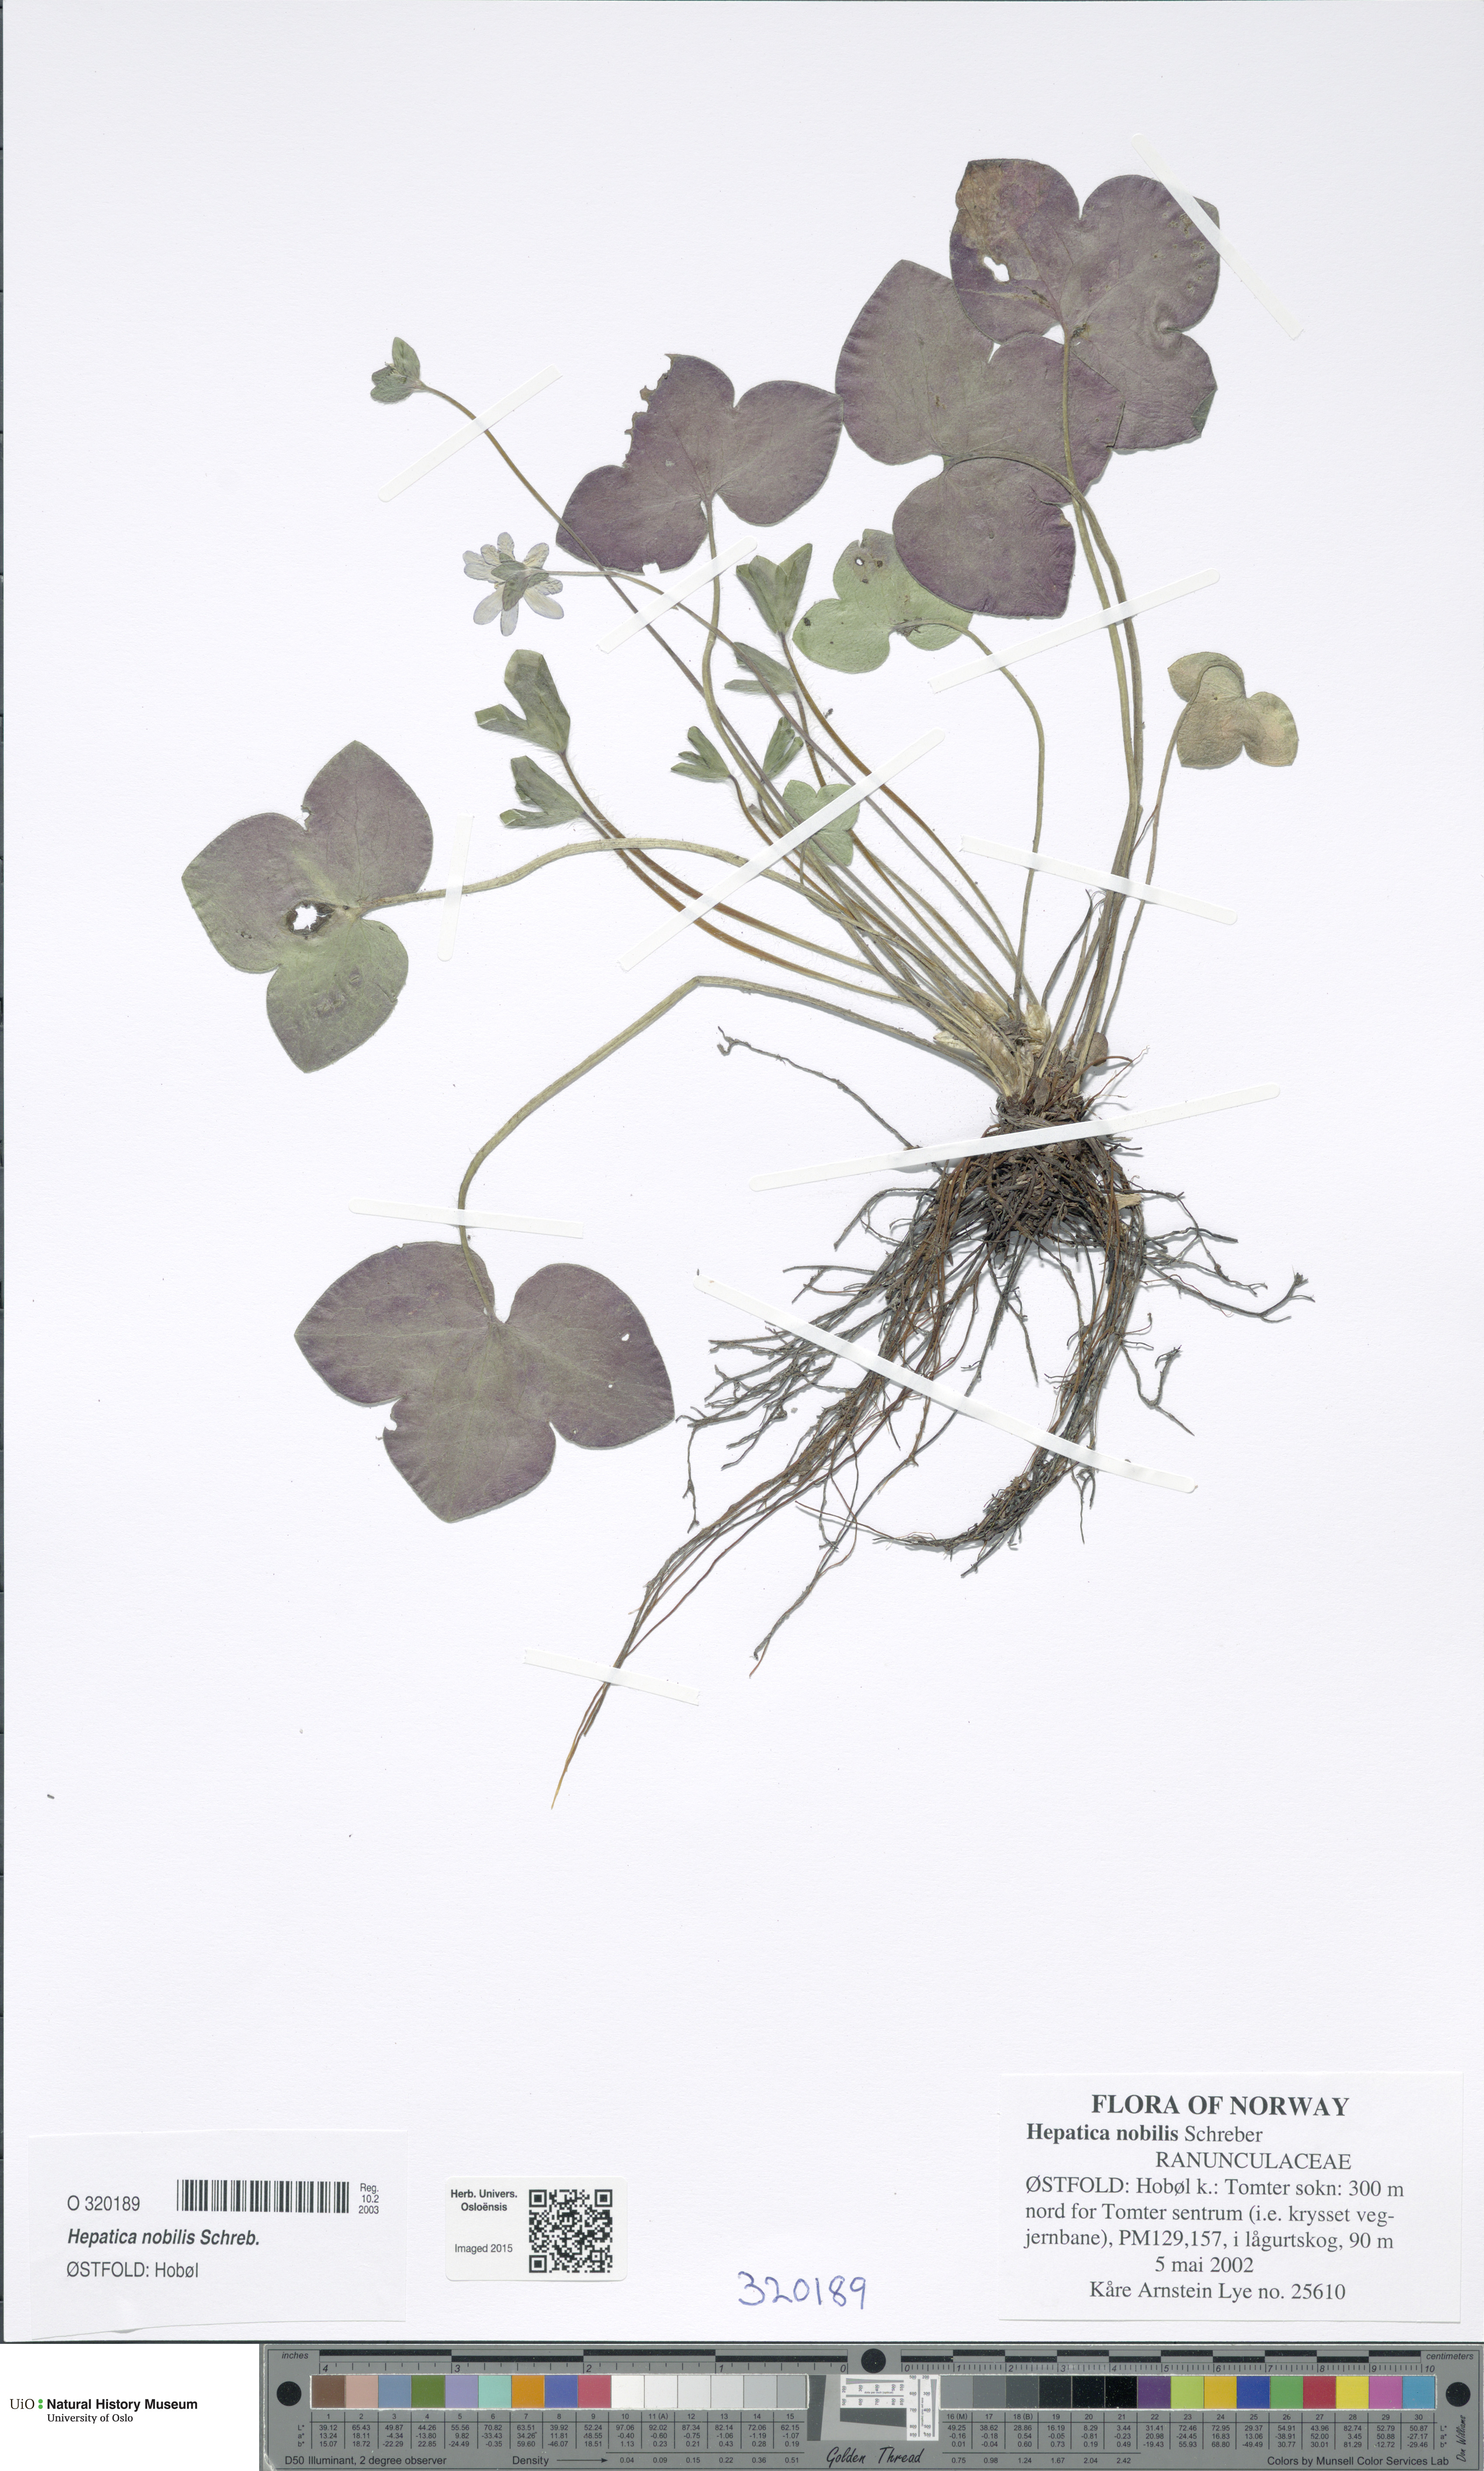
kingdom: Plantae
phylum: Tracheophyta
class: Magnoliopsida
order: Ranunculales
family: Ranunculaceae
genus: Hepatica
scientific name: Hepatica nobilis
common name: Liverleaf
